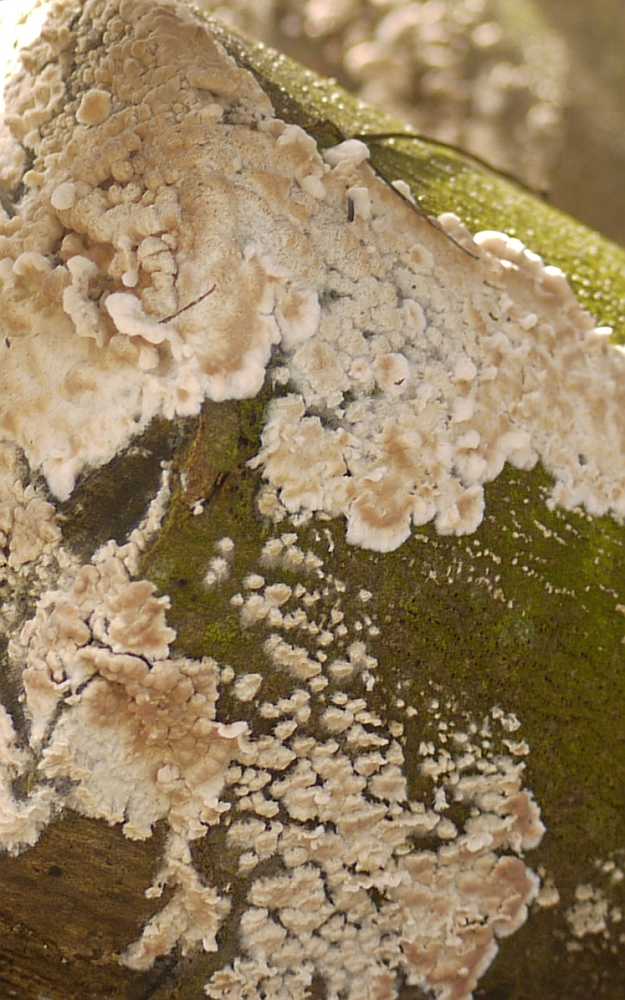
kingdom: Fungi
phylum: Basidiomycota
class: Agaricomycetes
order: Agaricales
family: Physalacriaceae
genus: Cylindrobasidium
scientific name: Cylindrobasidium evolvens
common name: sprækkehinde
